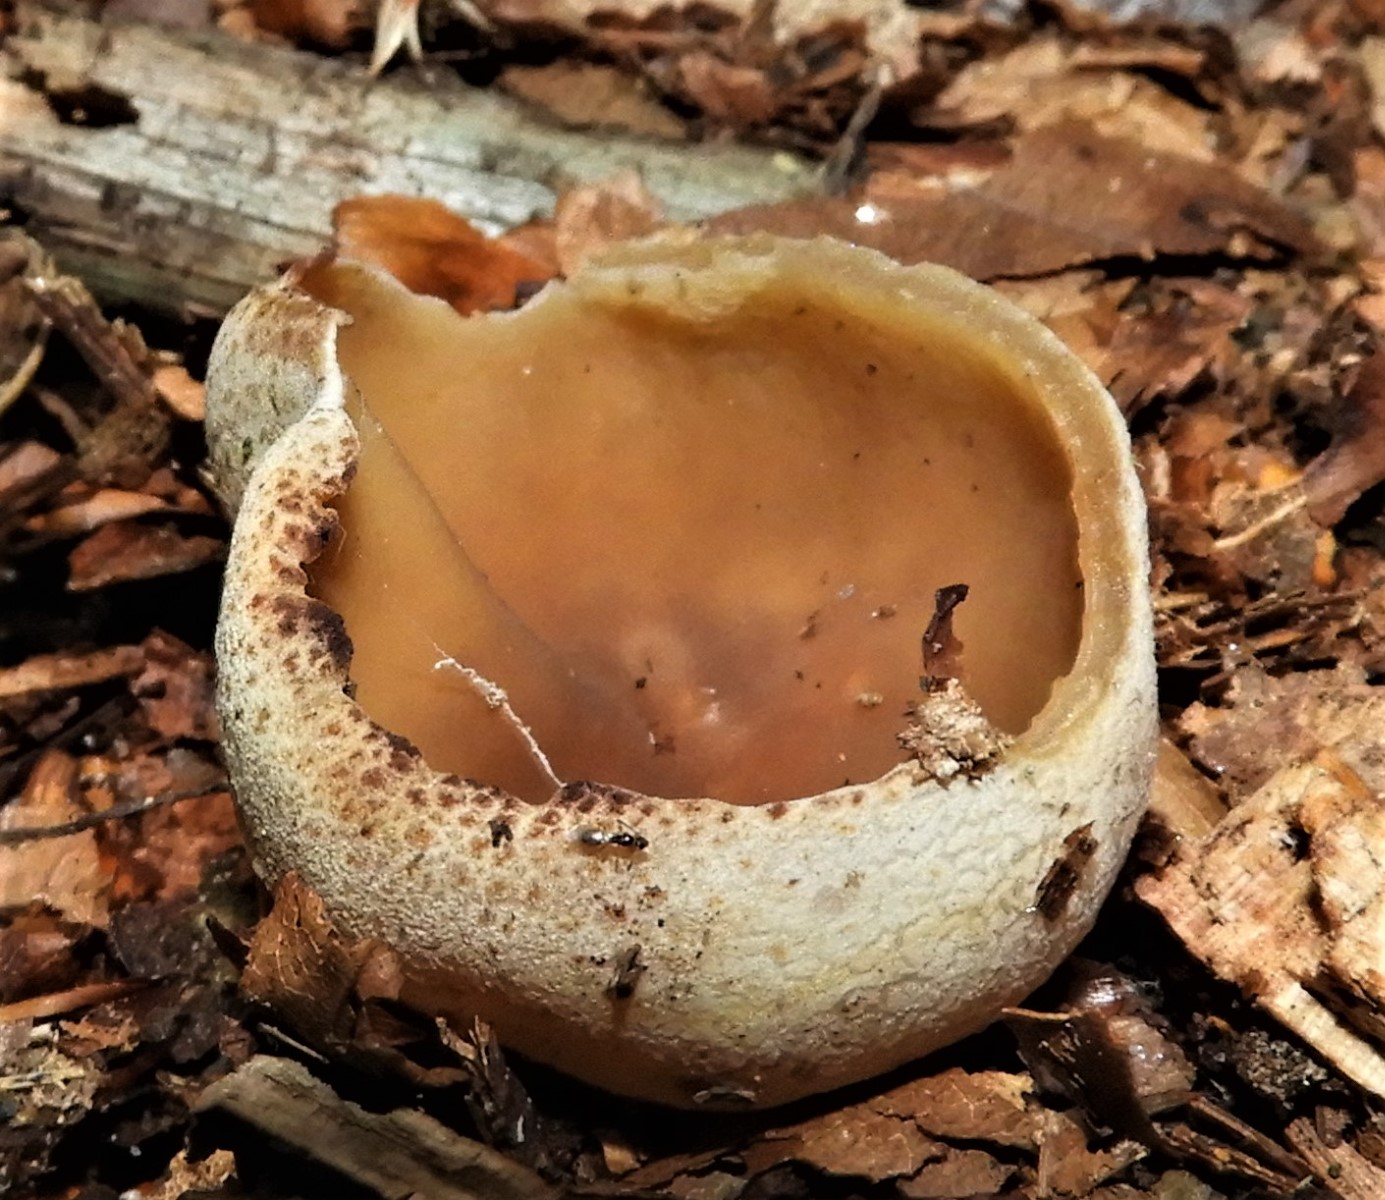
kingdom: Fungi
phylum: Ascomycota
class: Pezizomycetes
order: Pezizales
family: Pezizaceae
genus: Peziza
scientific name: Peziza
